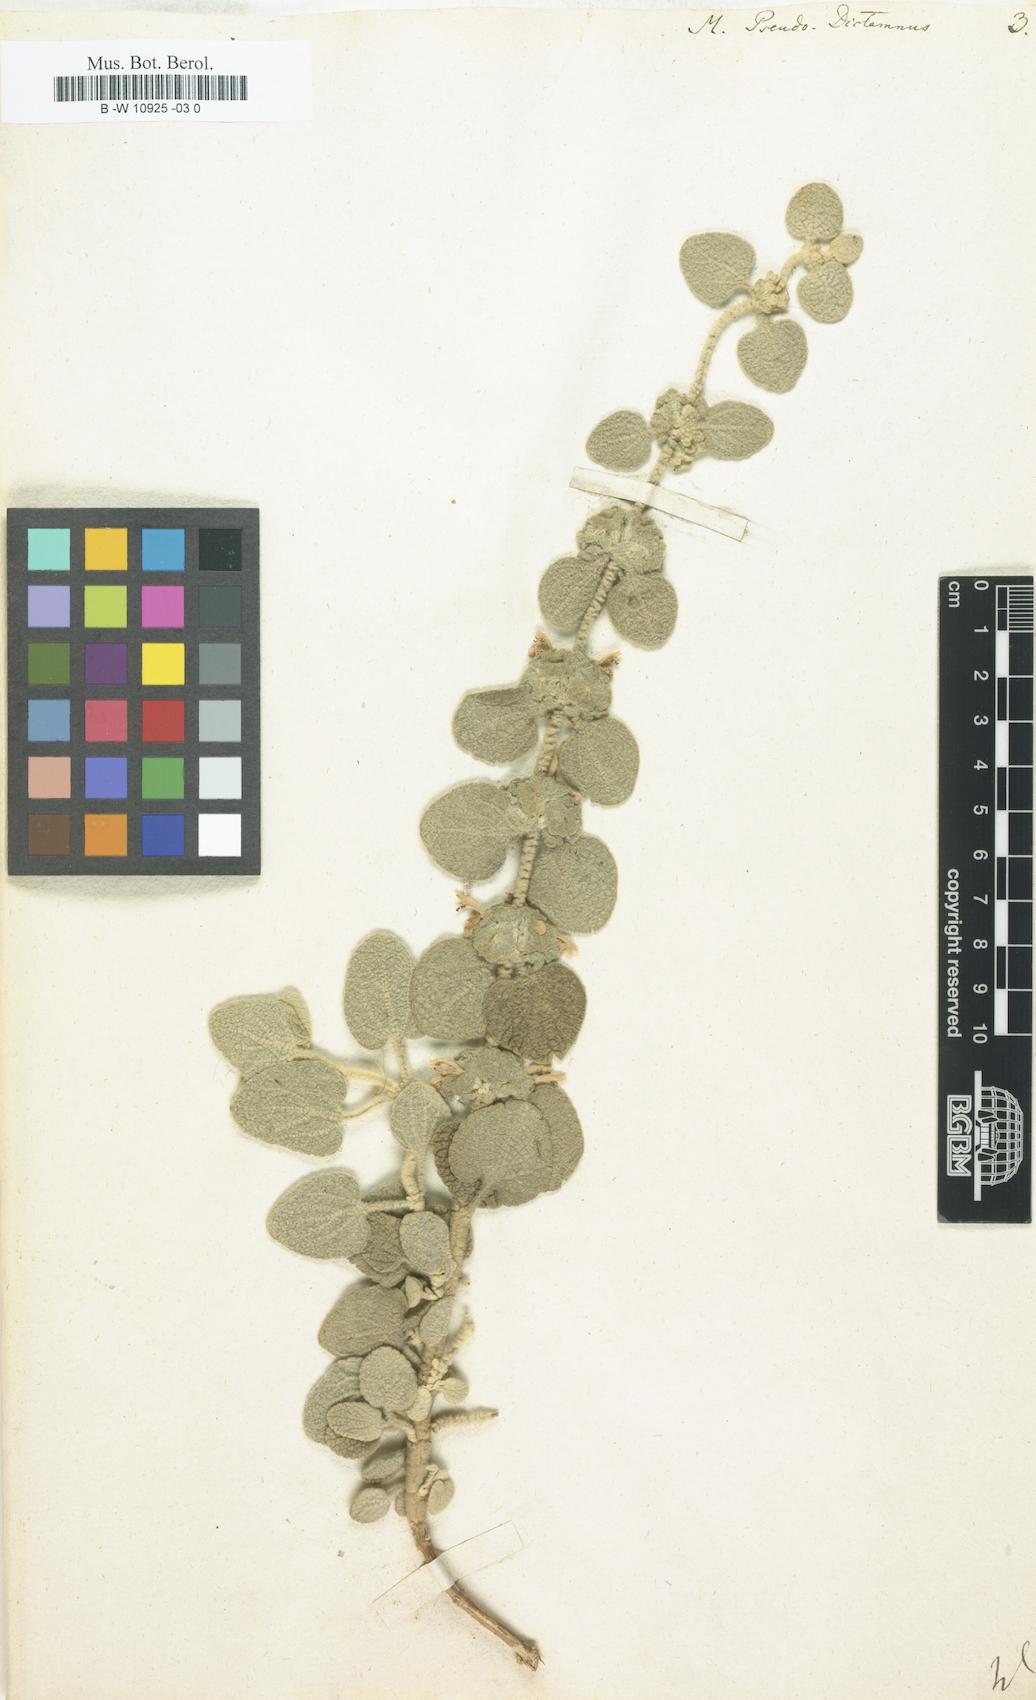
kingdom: Plantae
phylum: Tracheophyta
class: Magnoliopsida
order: Lamiales
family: Lamiaceae
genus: Marrubium
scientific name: Marrubium pseudodictamnus
